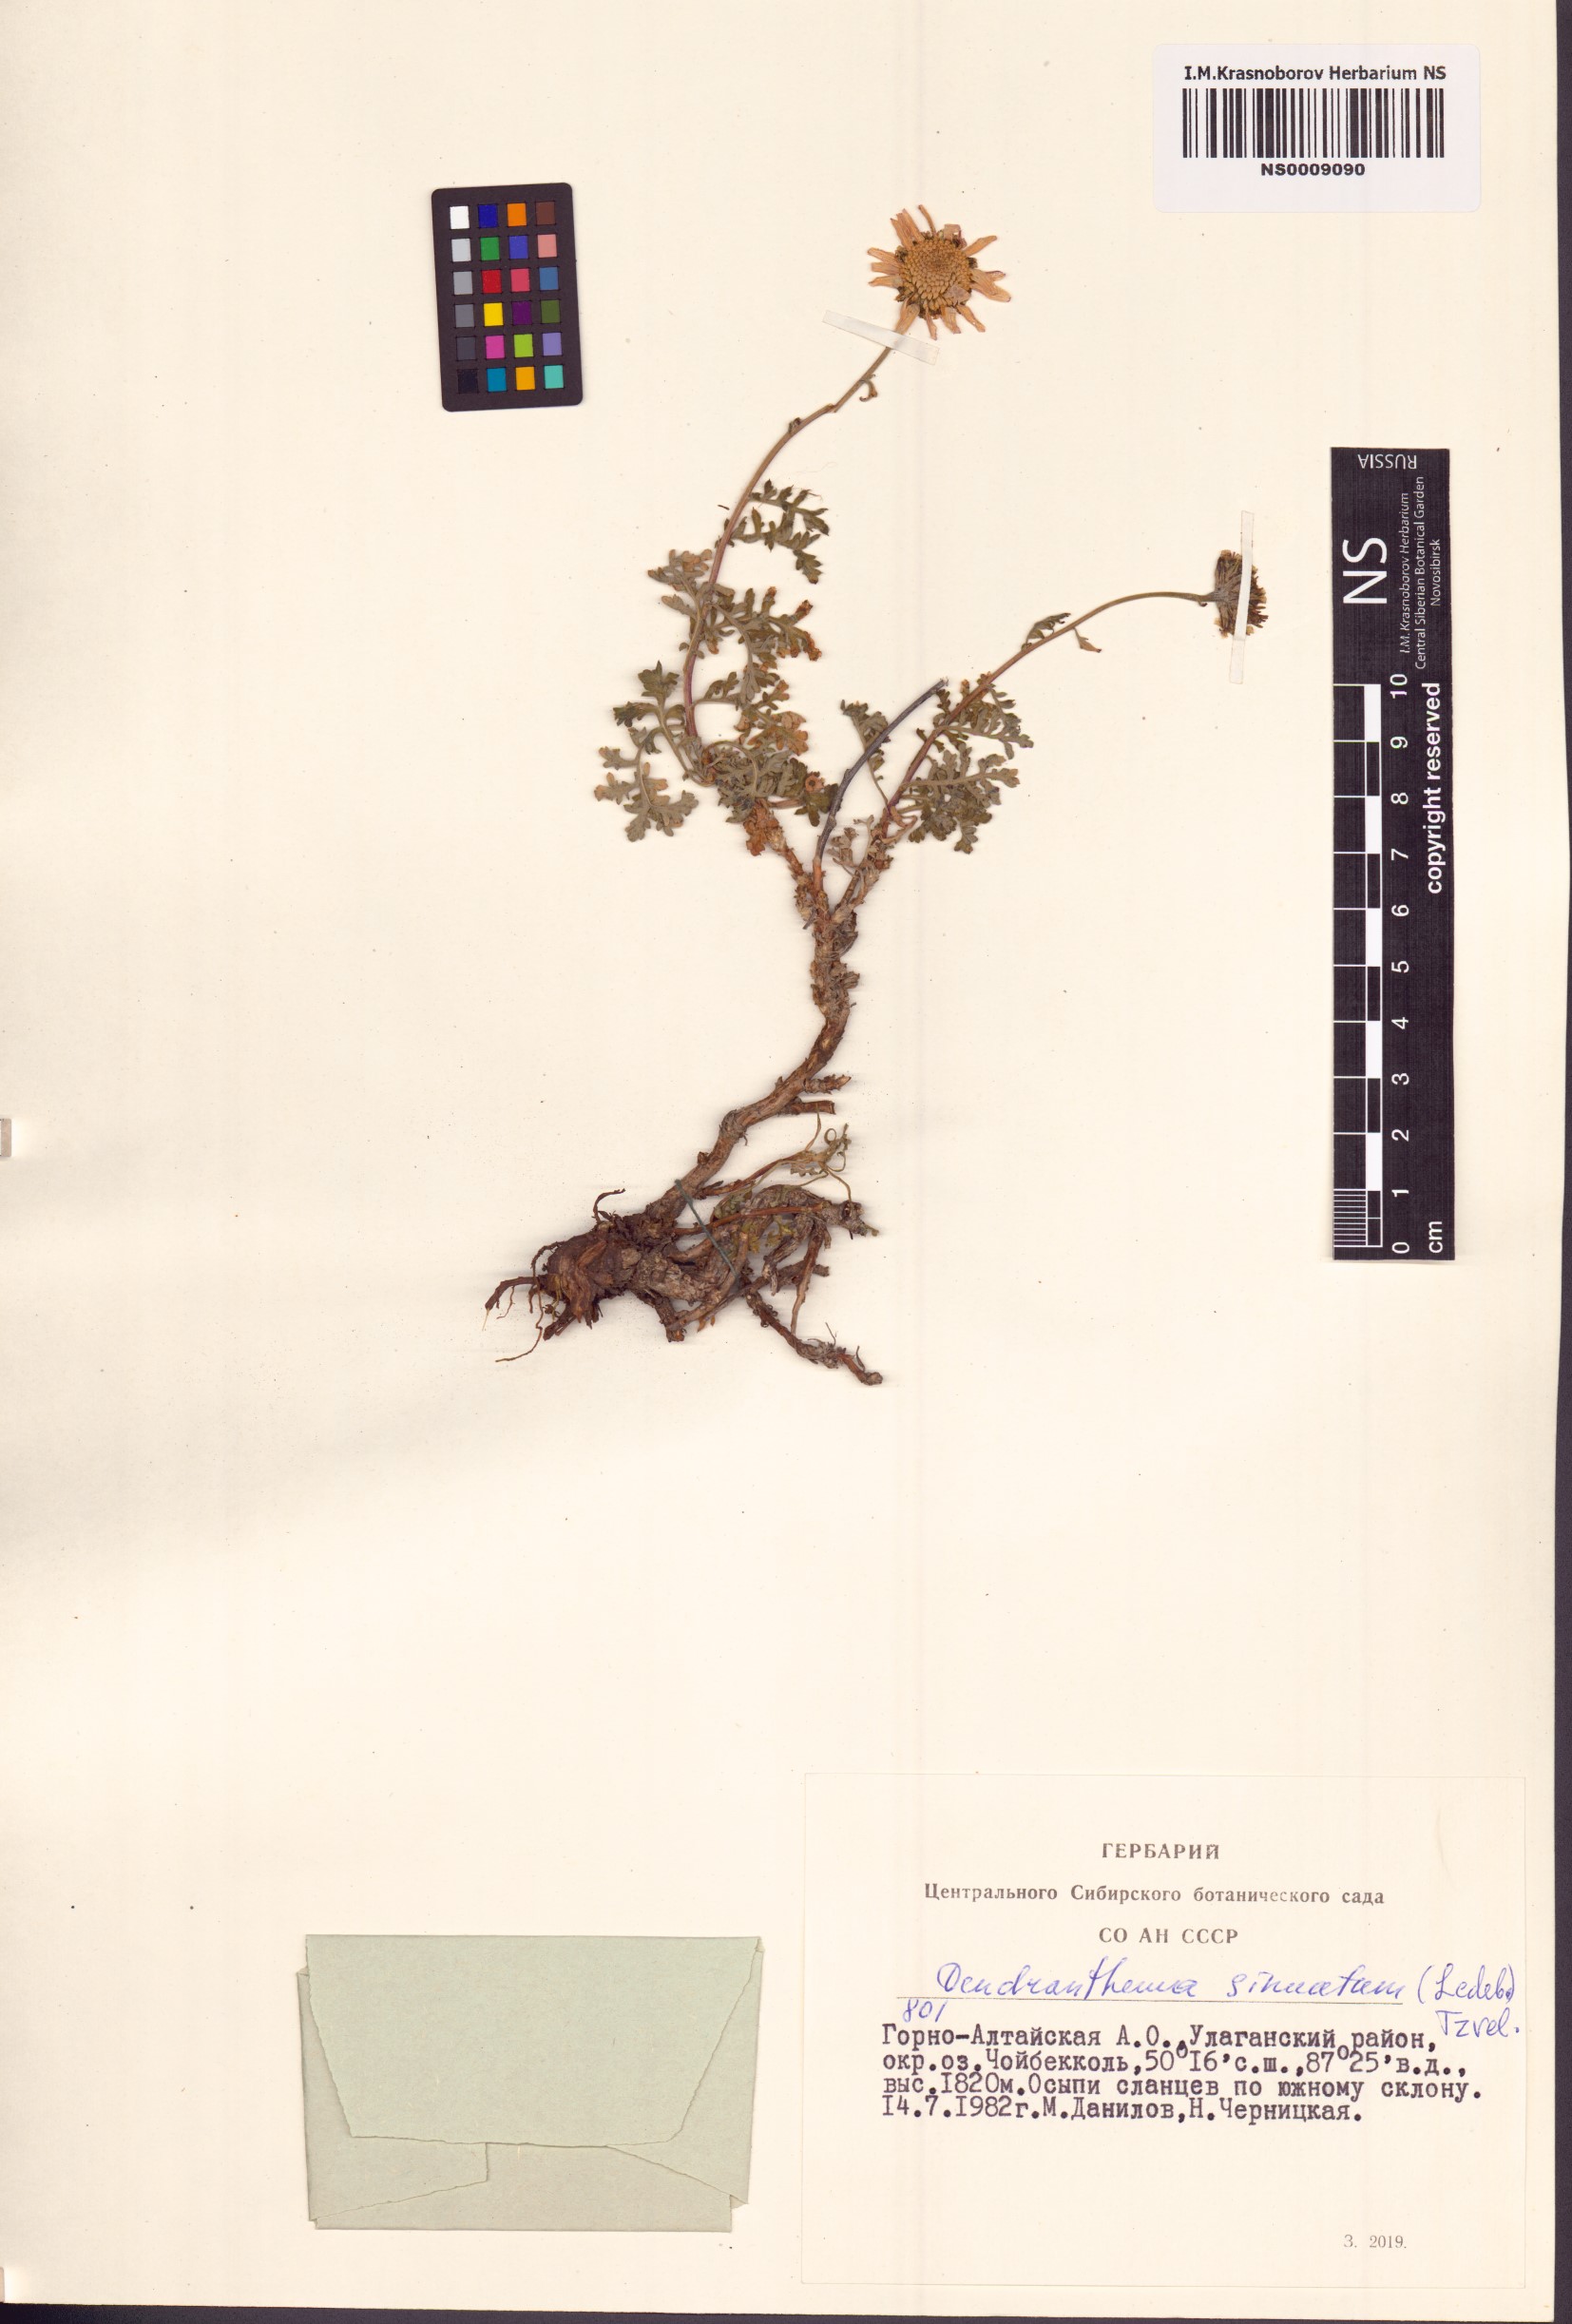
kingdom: Plantae
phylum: Tracheophyta
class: Magnoliopsida
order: Asterales
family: Asteraceae
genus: Chrysanthemum
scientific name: Chrysanthemum sinuatum
